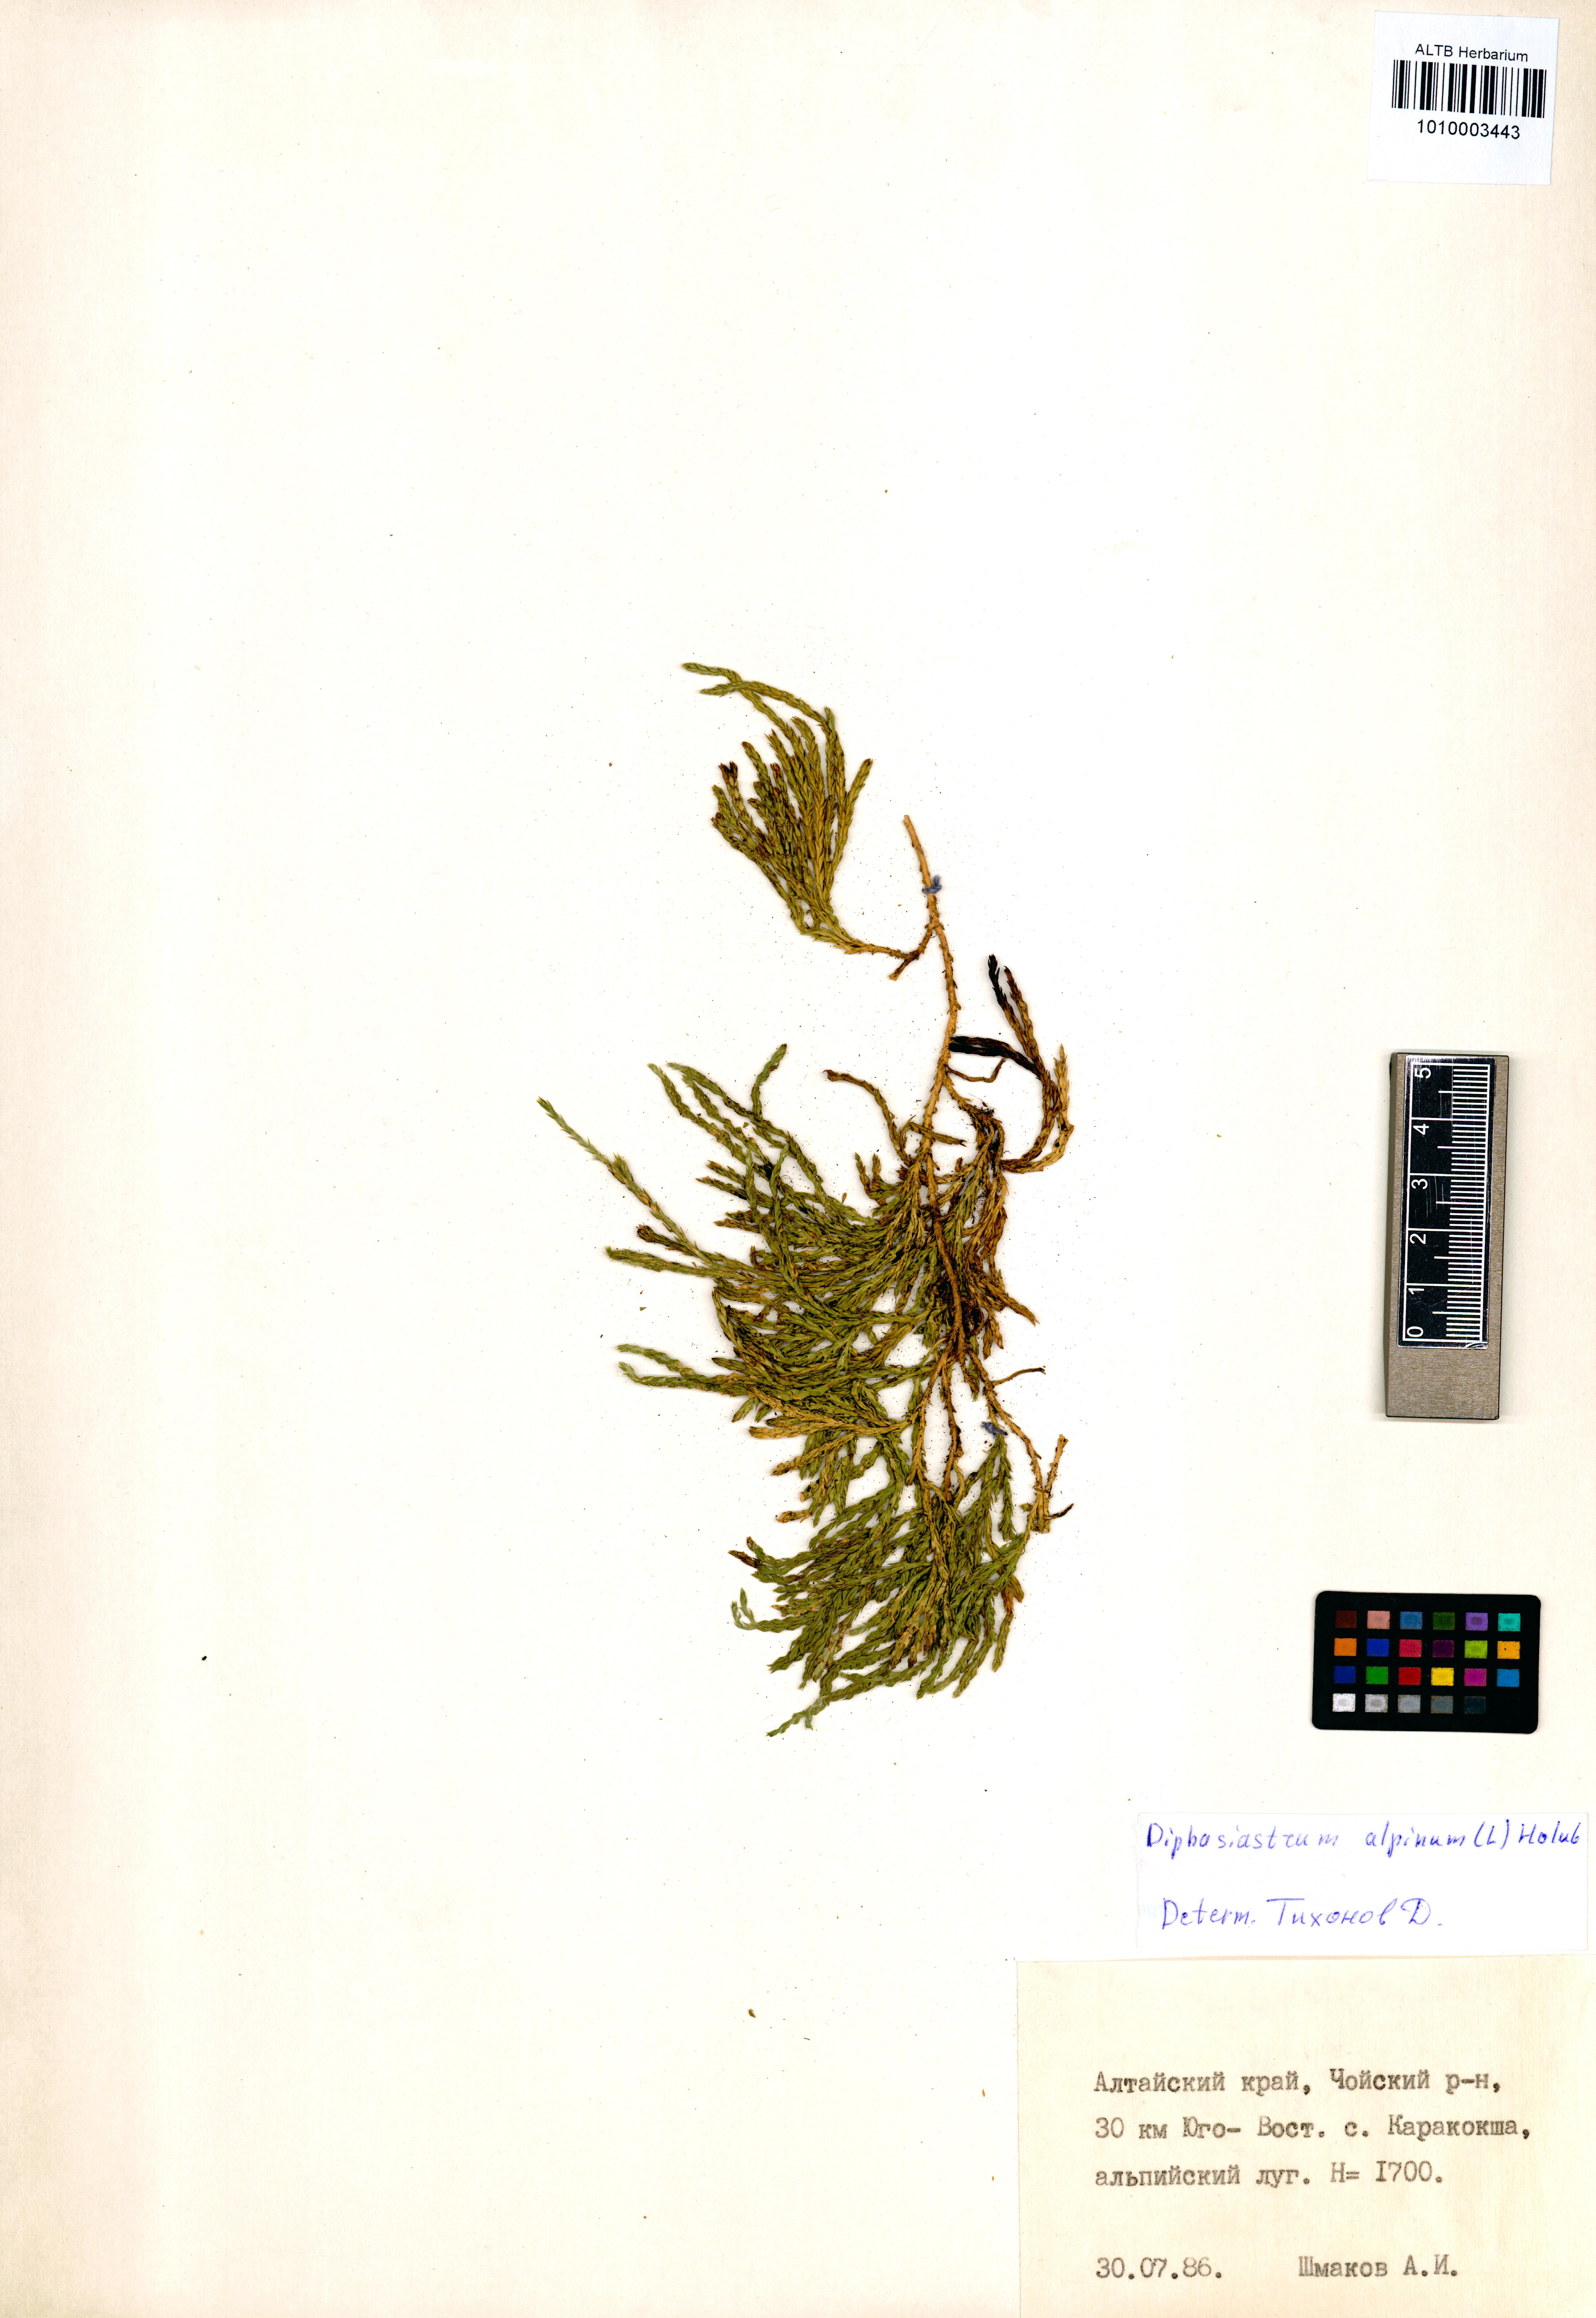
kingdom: Plantae
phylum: Tracheophyta
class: Lycopodiopsida
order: Lycopodiales
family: Lycopodiaceae
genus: Diphasiastrum
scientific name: Diphasiastrum alpinum
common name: Alpine clubmoss
